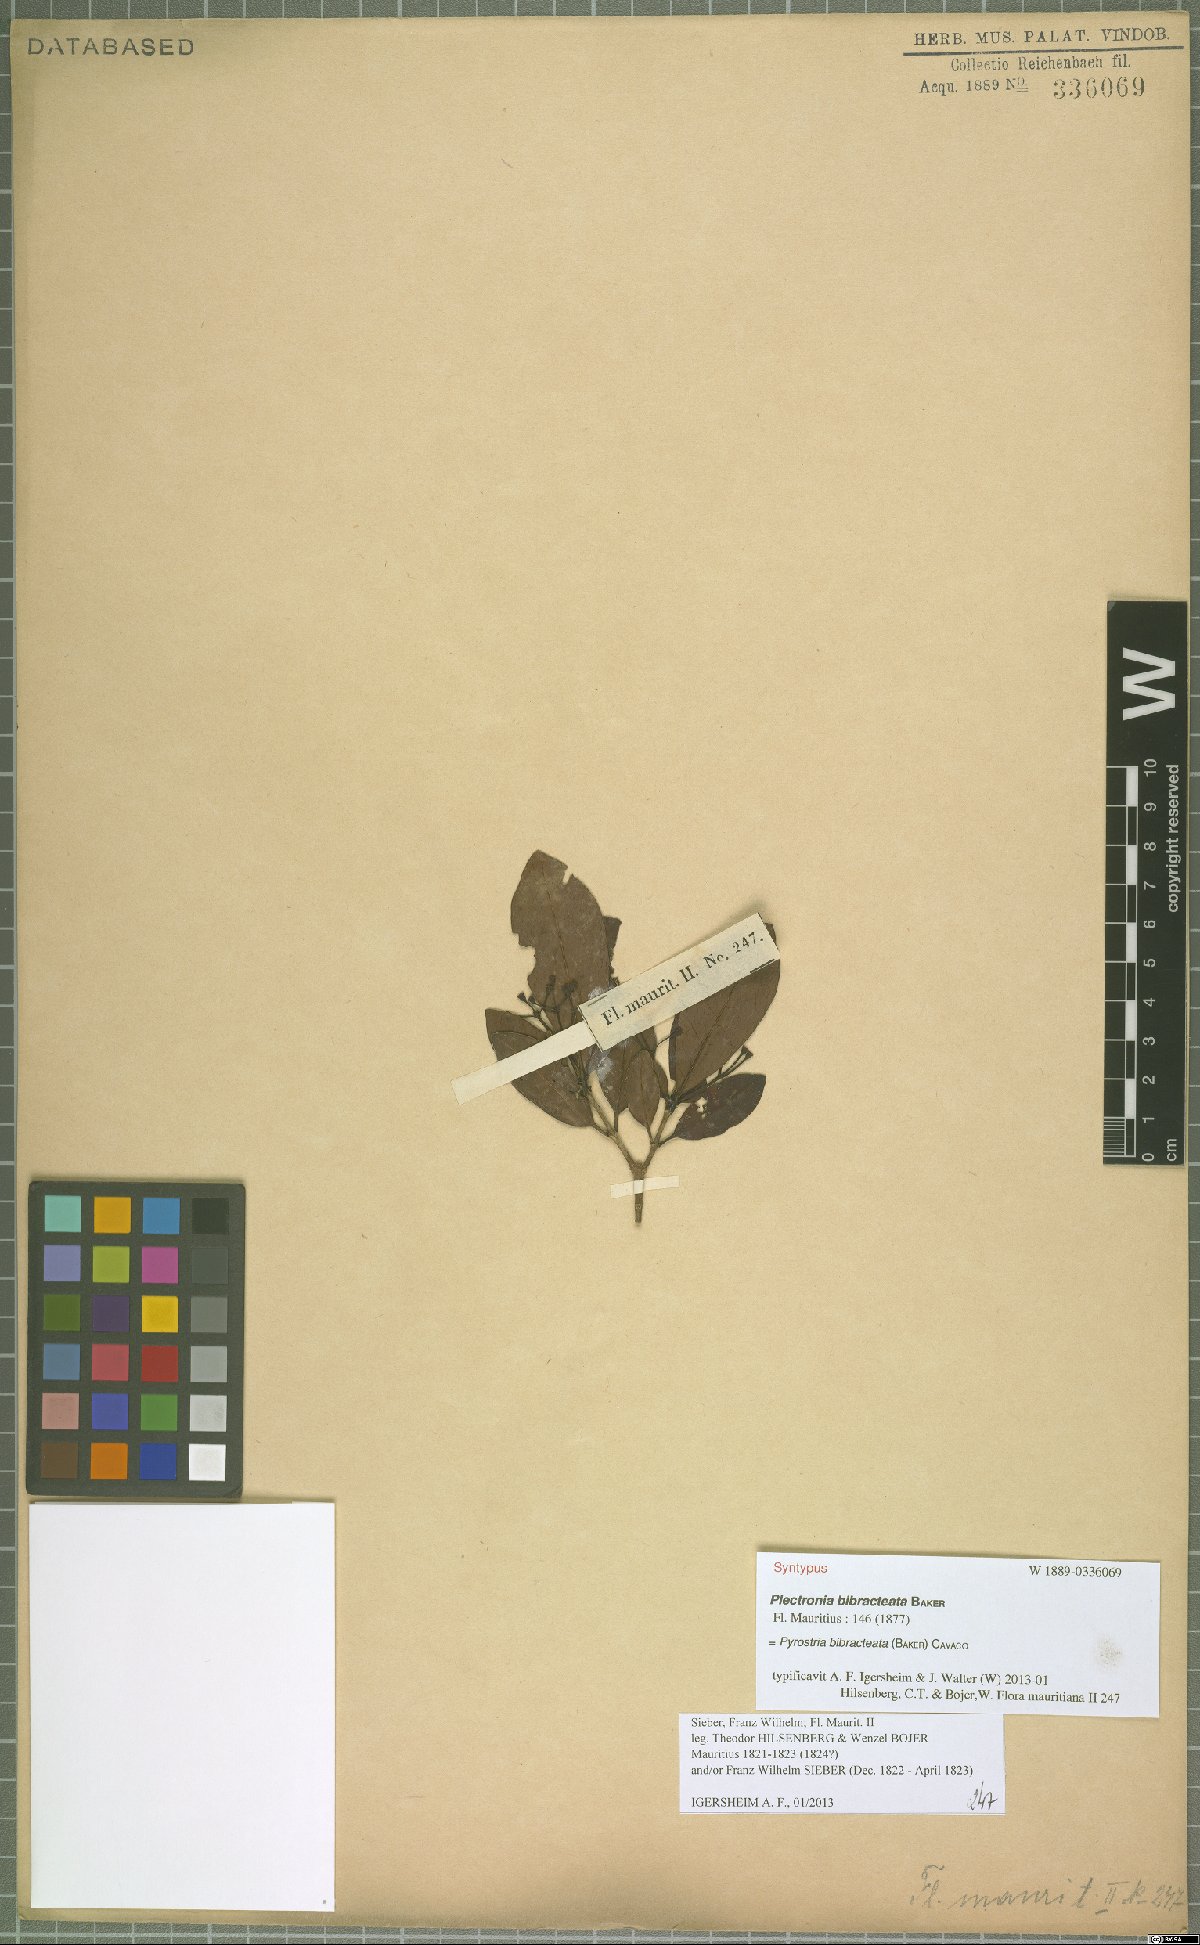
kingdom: Plantae
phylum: Tracheophyta
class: Magnoliopsida
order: Gentianales
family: Rubiaceae
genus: Pyrostria
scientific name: Pyrostria bibracteata
